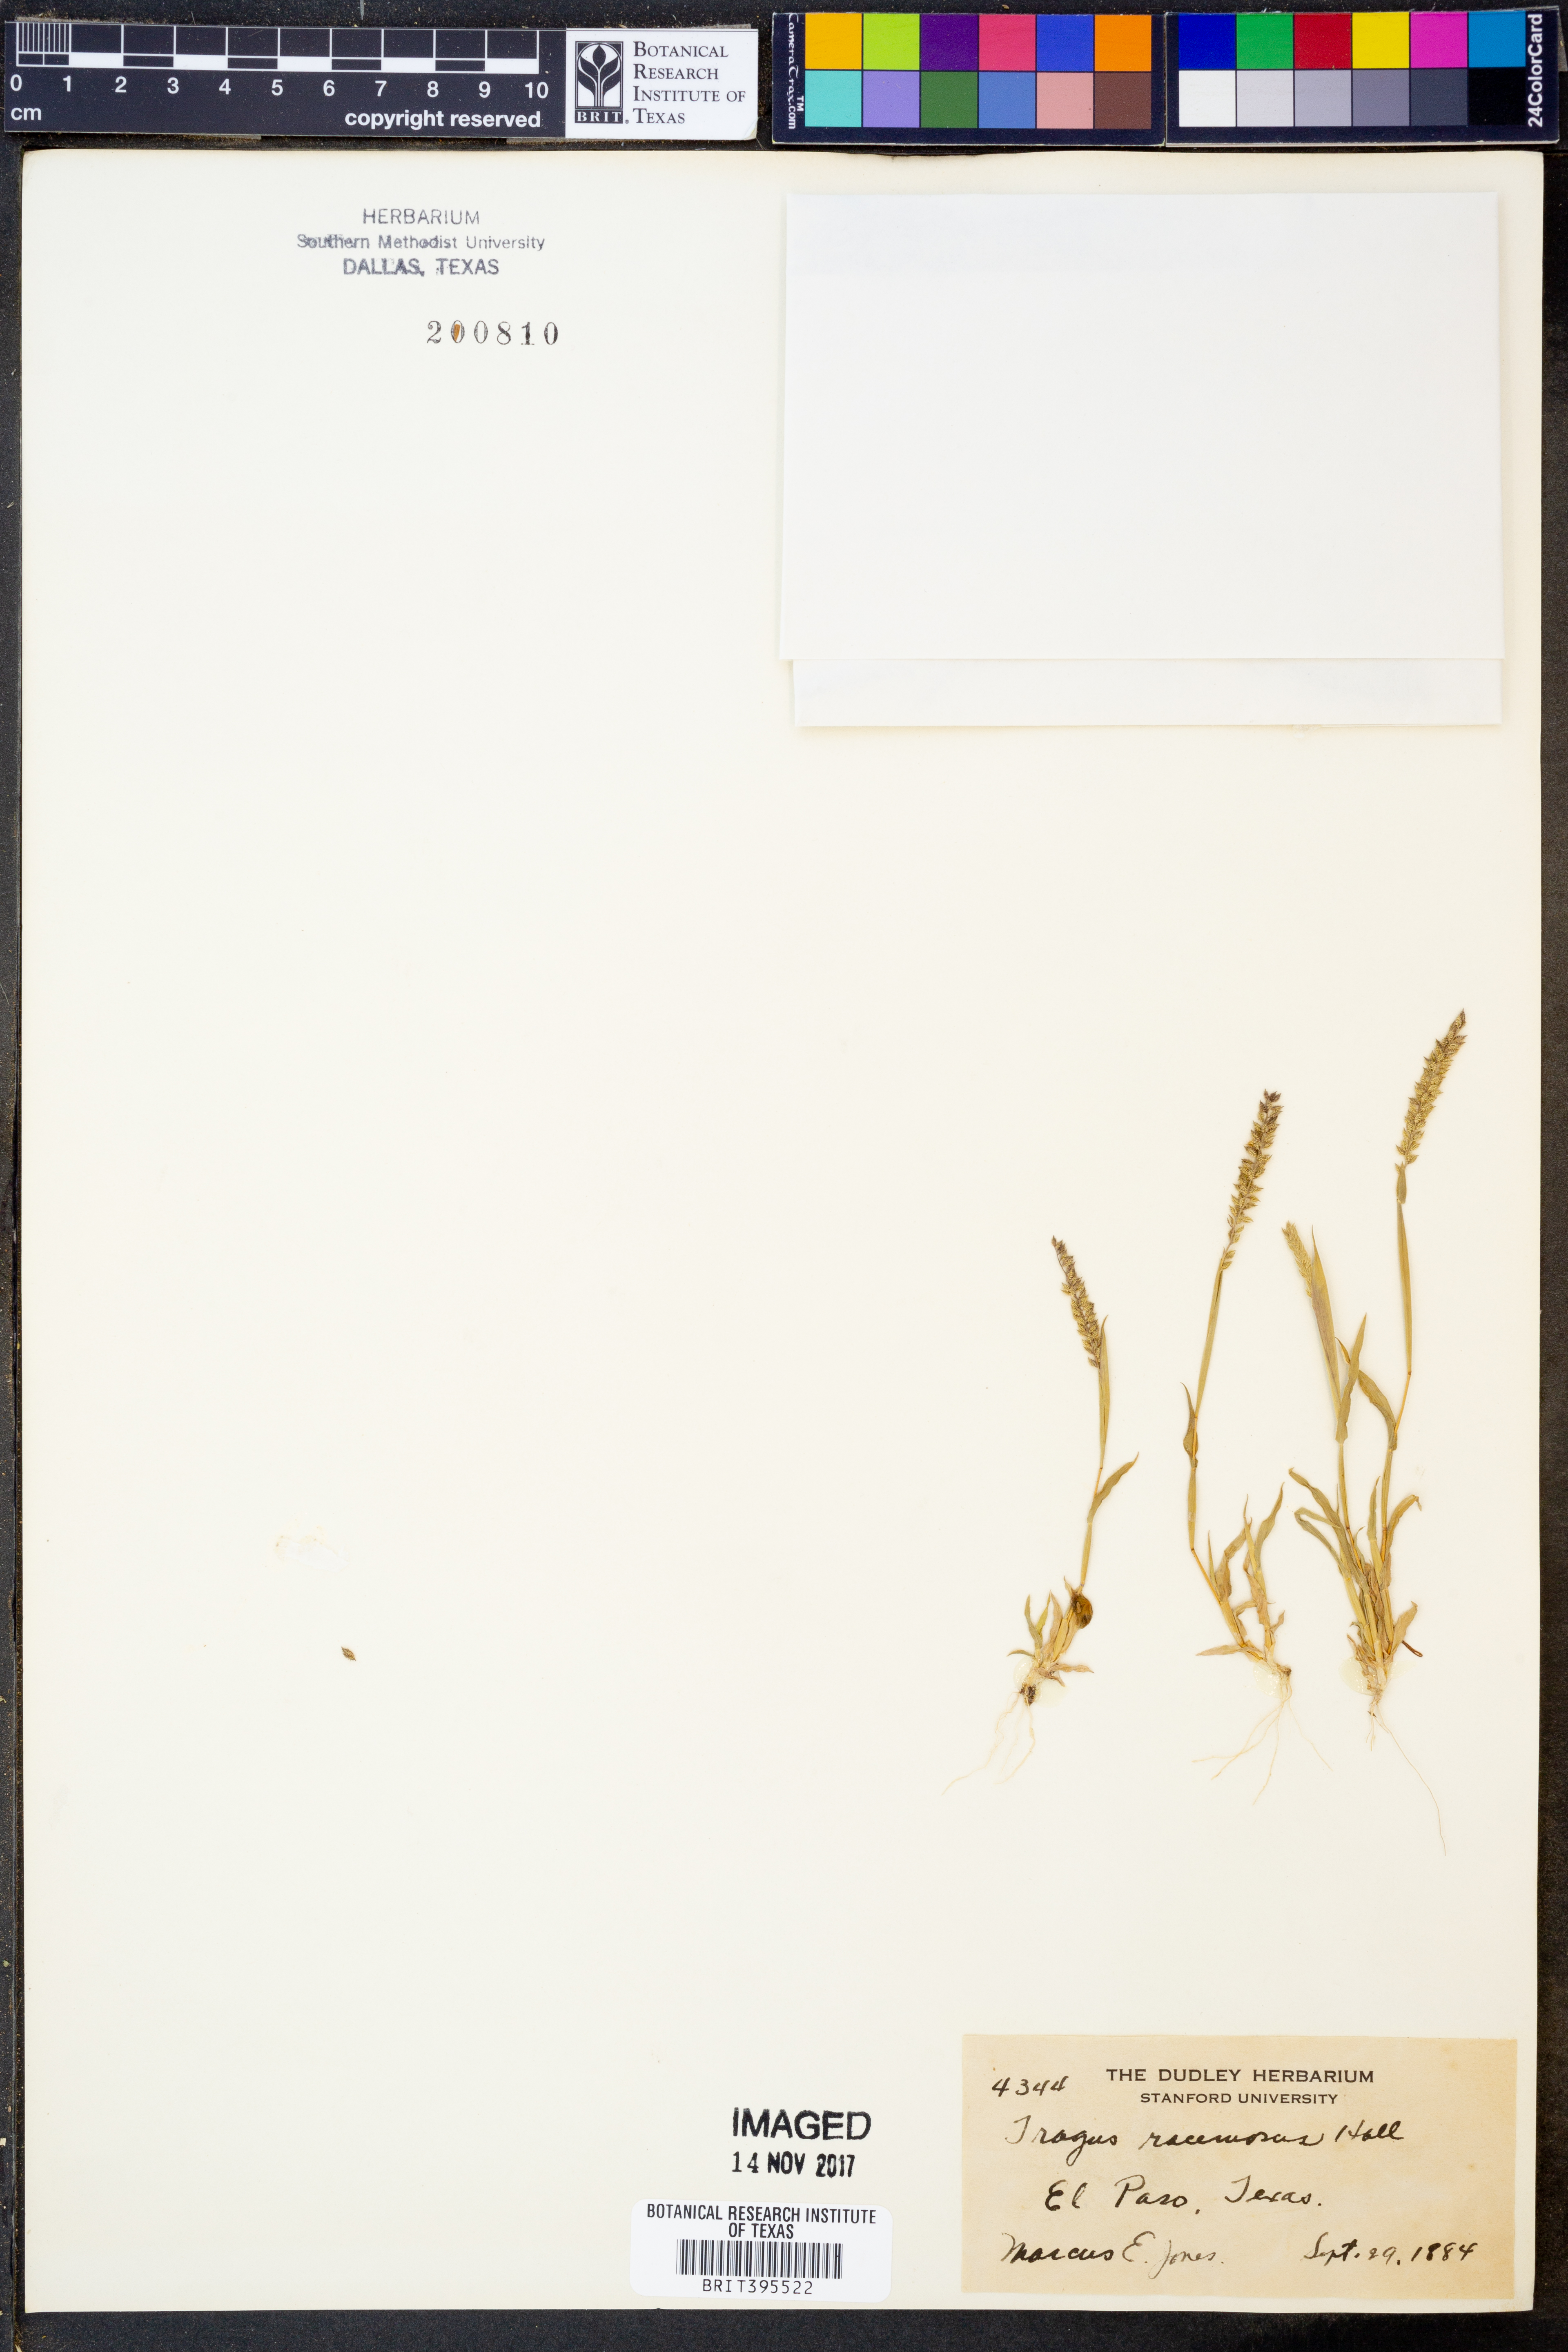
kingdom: Plantae
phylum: Tracheophyta
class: Liliopsida
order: Poales
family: Poaceae
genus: Tragus
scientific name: Tragus racemosus
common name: European bur-grass
